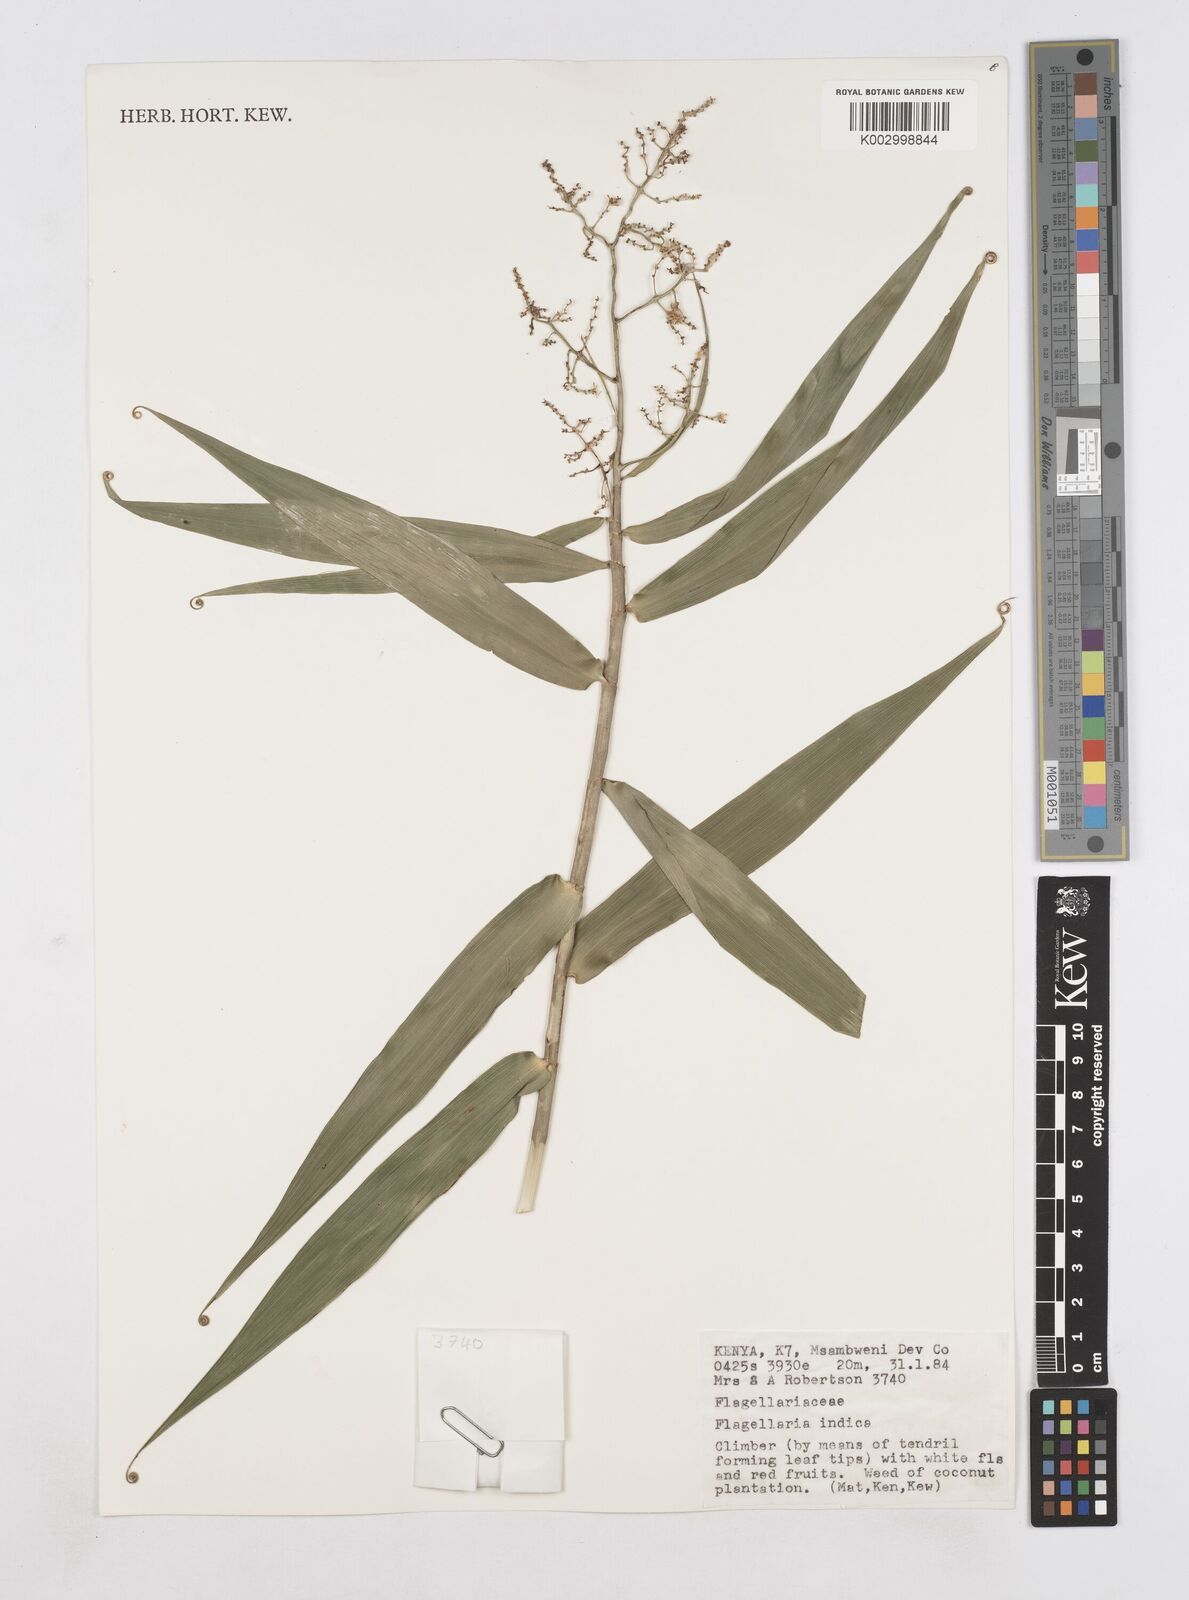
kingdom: Plantae
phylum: Tracheophyta
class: Liliopsida
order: Poales
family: Flagellariaceae
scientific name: Flagellariaceae
